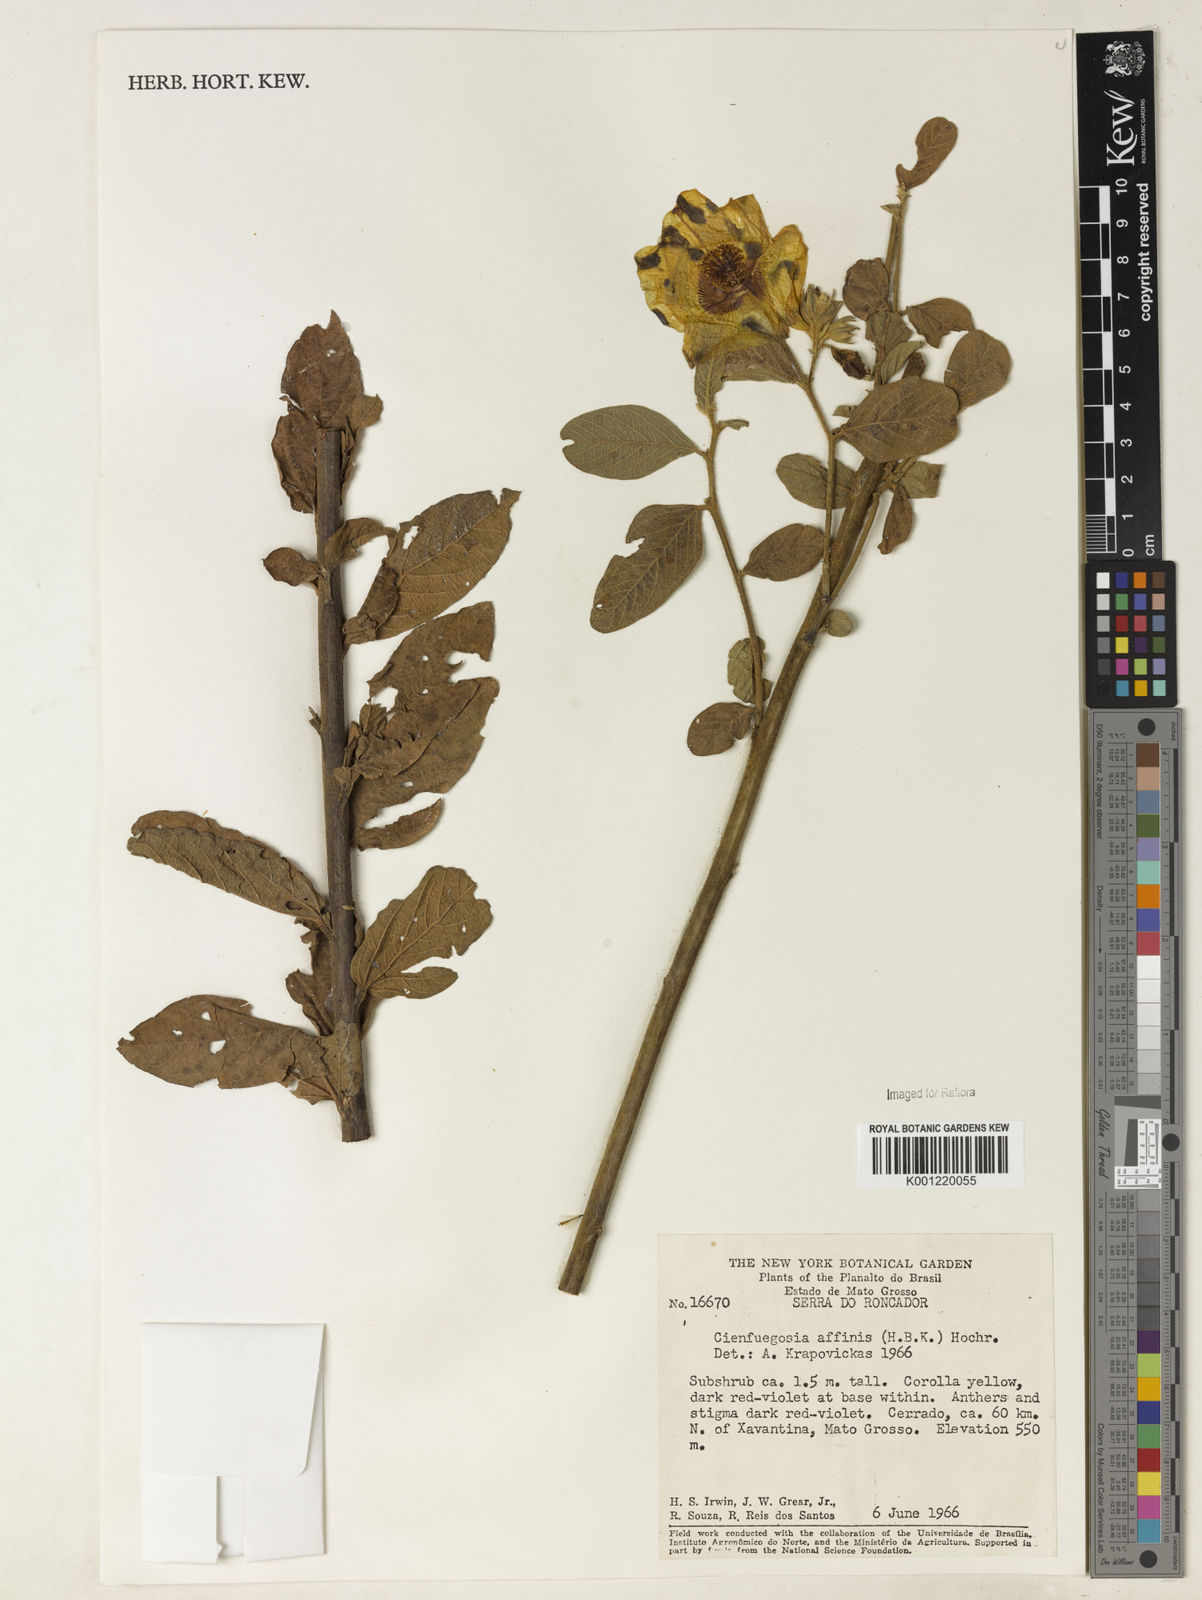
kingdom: Plantae
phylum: Tracheophyta
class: Magnoliopsida
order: Malvales
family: Malvaceae
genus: Cienfuegosia
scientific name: Cienfuegosia affinis
